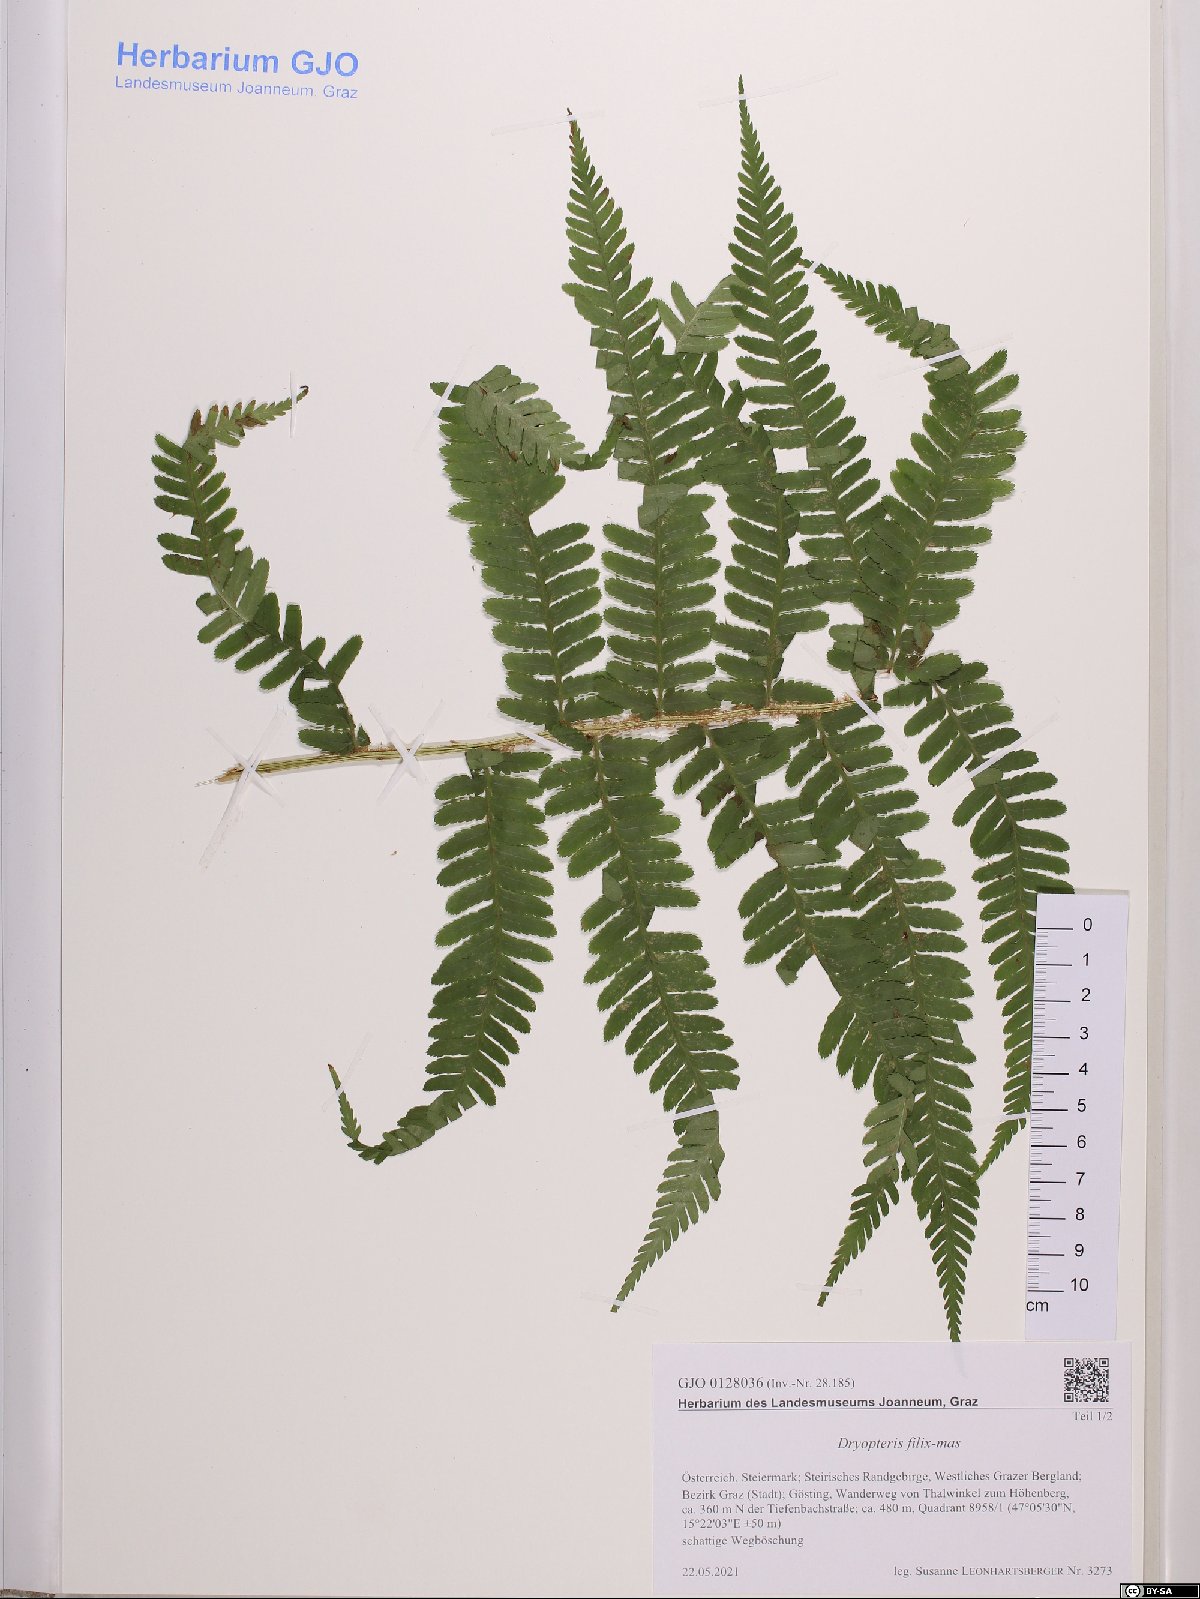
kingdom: Plantae
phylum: Tracheophyta
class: Polypodiopsida
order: Polypodiales
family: Dryopteridaceae
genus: Dryopteris
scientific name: Dryopteris filix-mas
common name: Male fern
